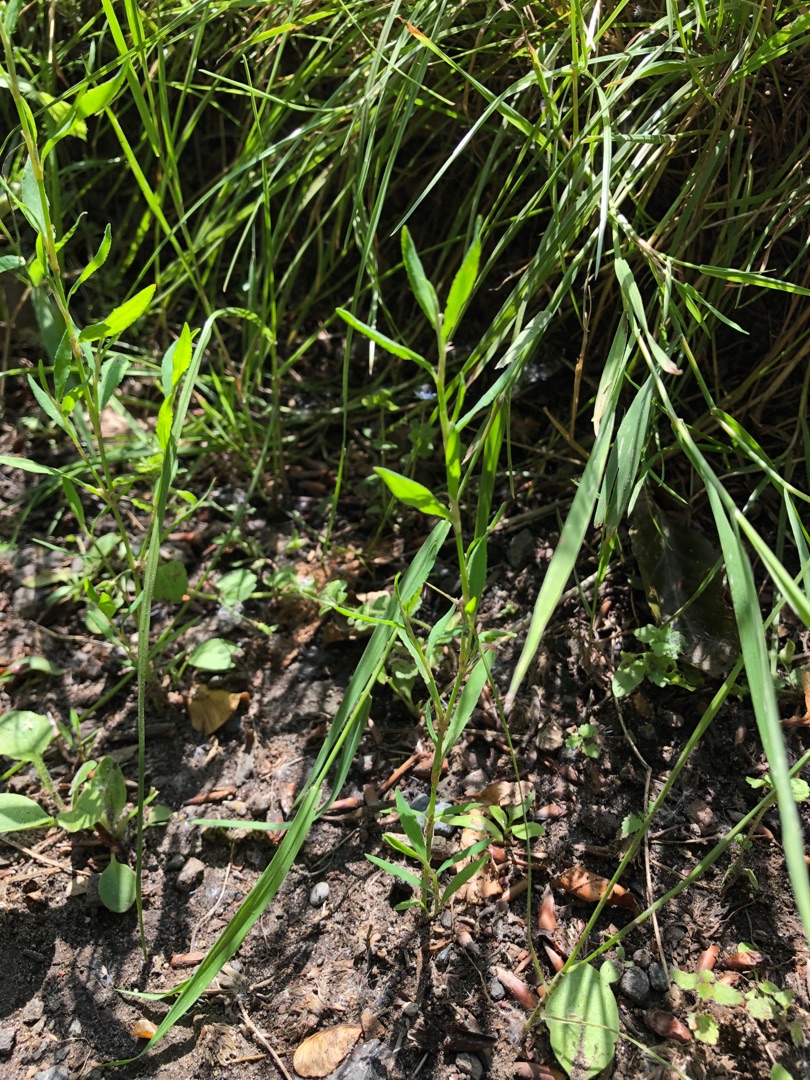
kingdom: Plantae
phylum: Tracheophyta
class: Magnoliopsida
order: Caryophyllales
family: Polygonaceae
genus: Polygonum
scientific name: Polygonum aviculare
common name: Vej-pileurt
